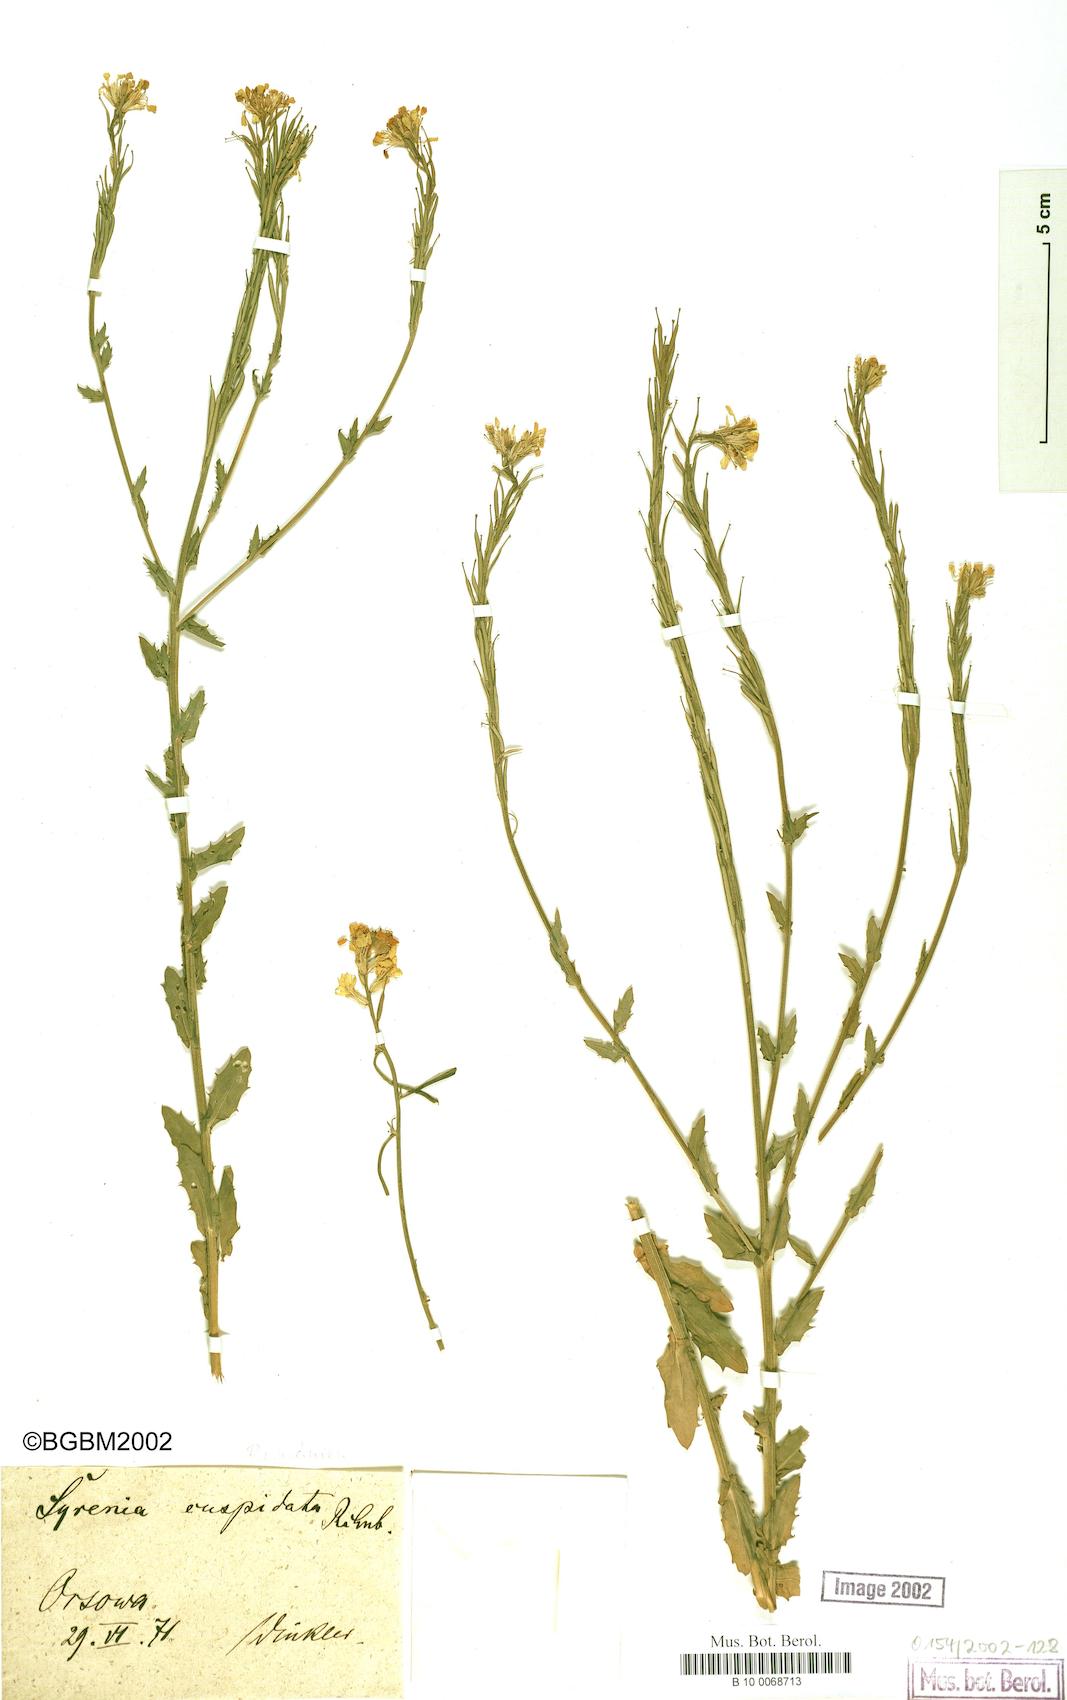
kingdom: Plantae
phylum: Tracheophyta
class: Magnoliopsida
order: Brassicales
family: Brassicaceae
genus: Erysimum
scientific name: Erysimum cuspidatum
